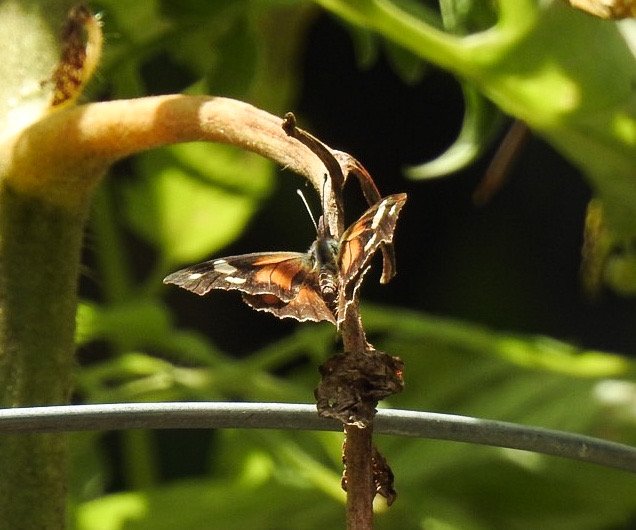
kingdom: Animalia
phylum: Arthropoda
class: Insecta
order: Lepidoptera
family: Nymphalidae
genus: Libytheana
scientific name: Libytheana carinenta
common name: American Snout
